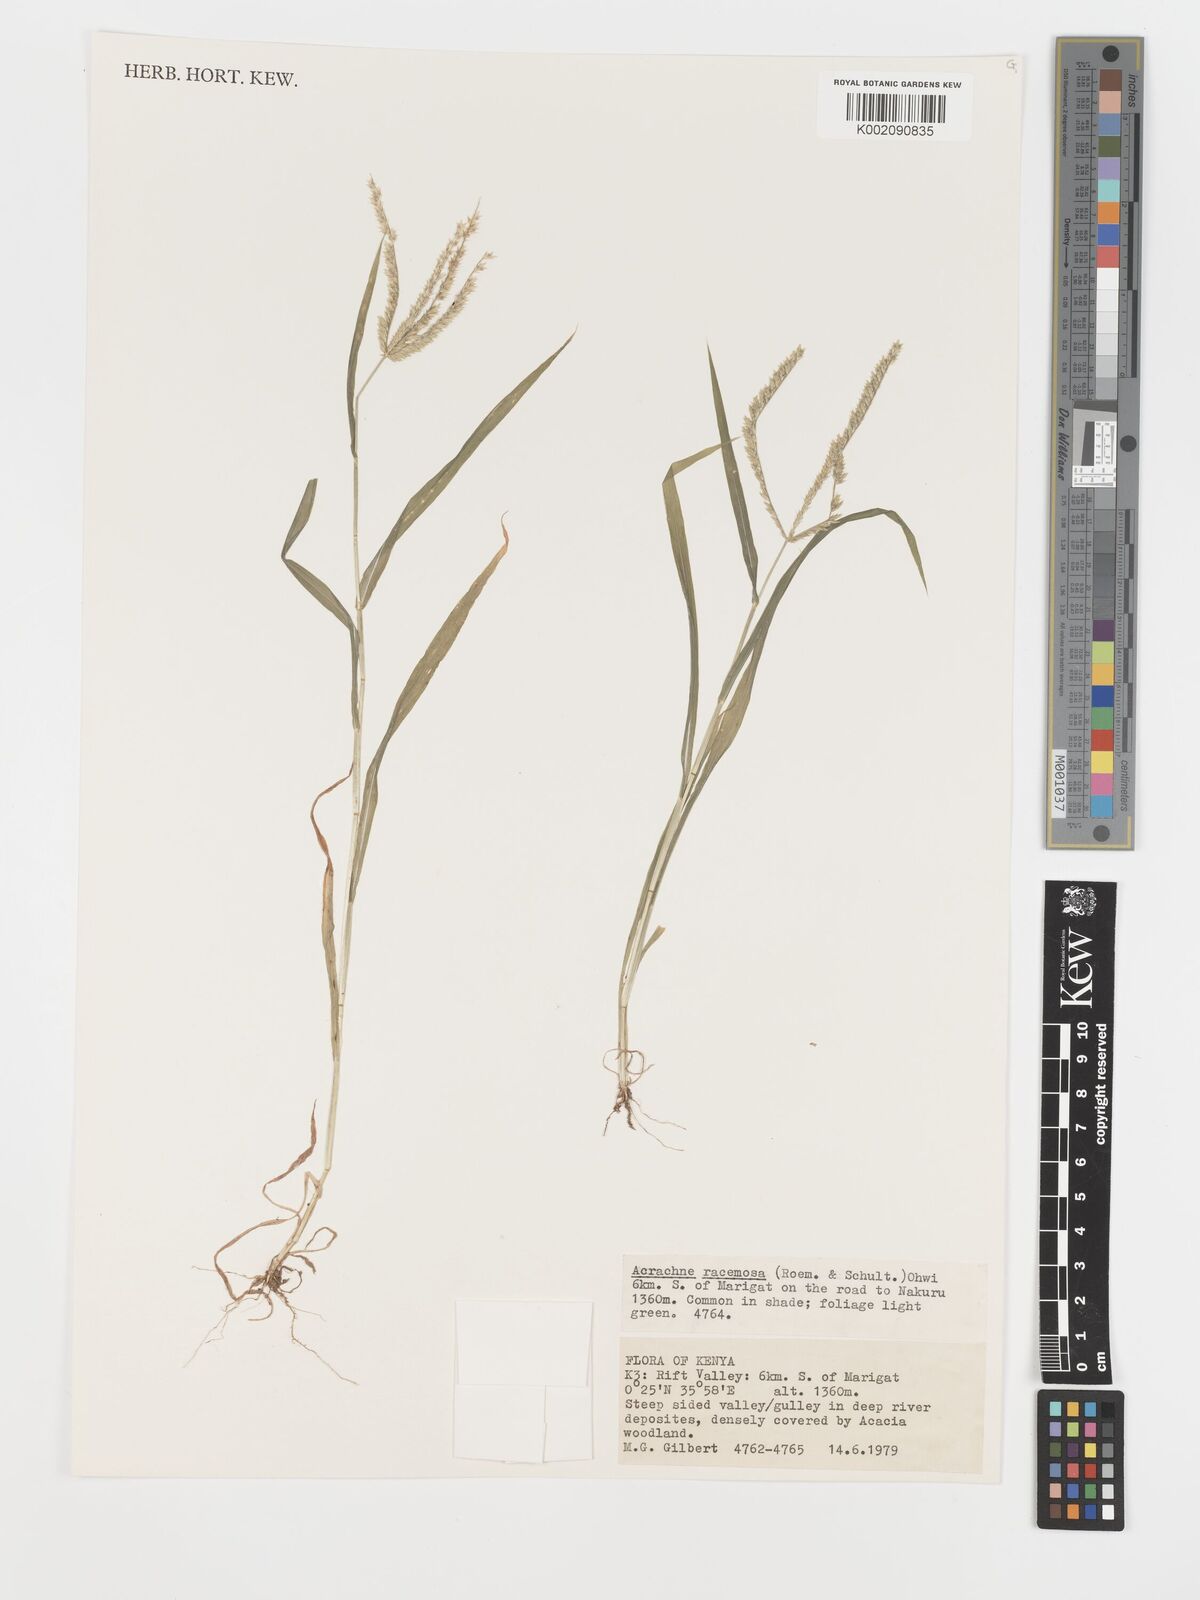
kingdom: Plantae
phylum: Tracheophyta
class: Liliopsida
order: Poales
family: Poaceae
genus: Acrachne
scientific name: Acrachne racemosa
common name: Goosegrass
